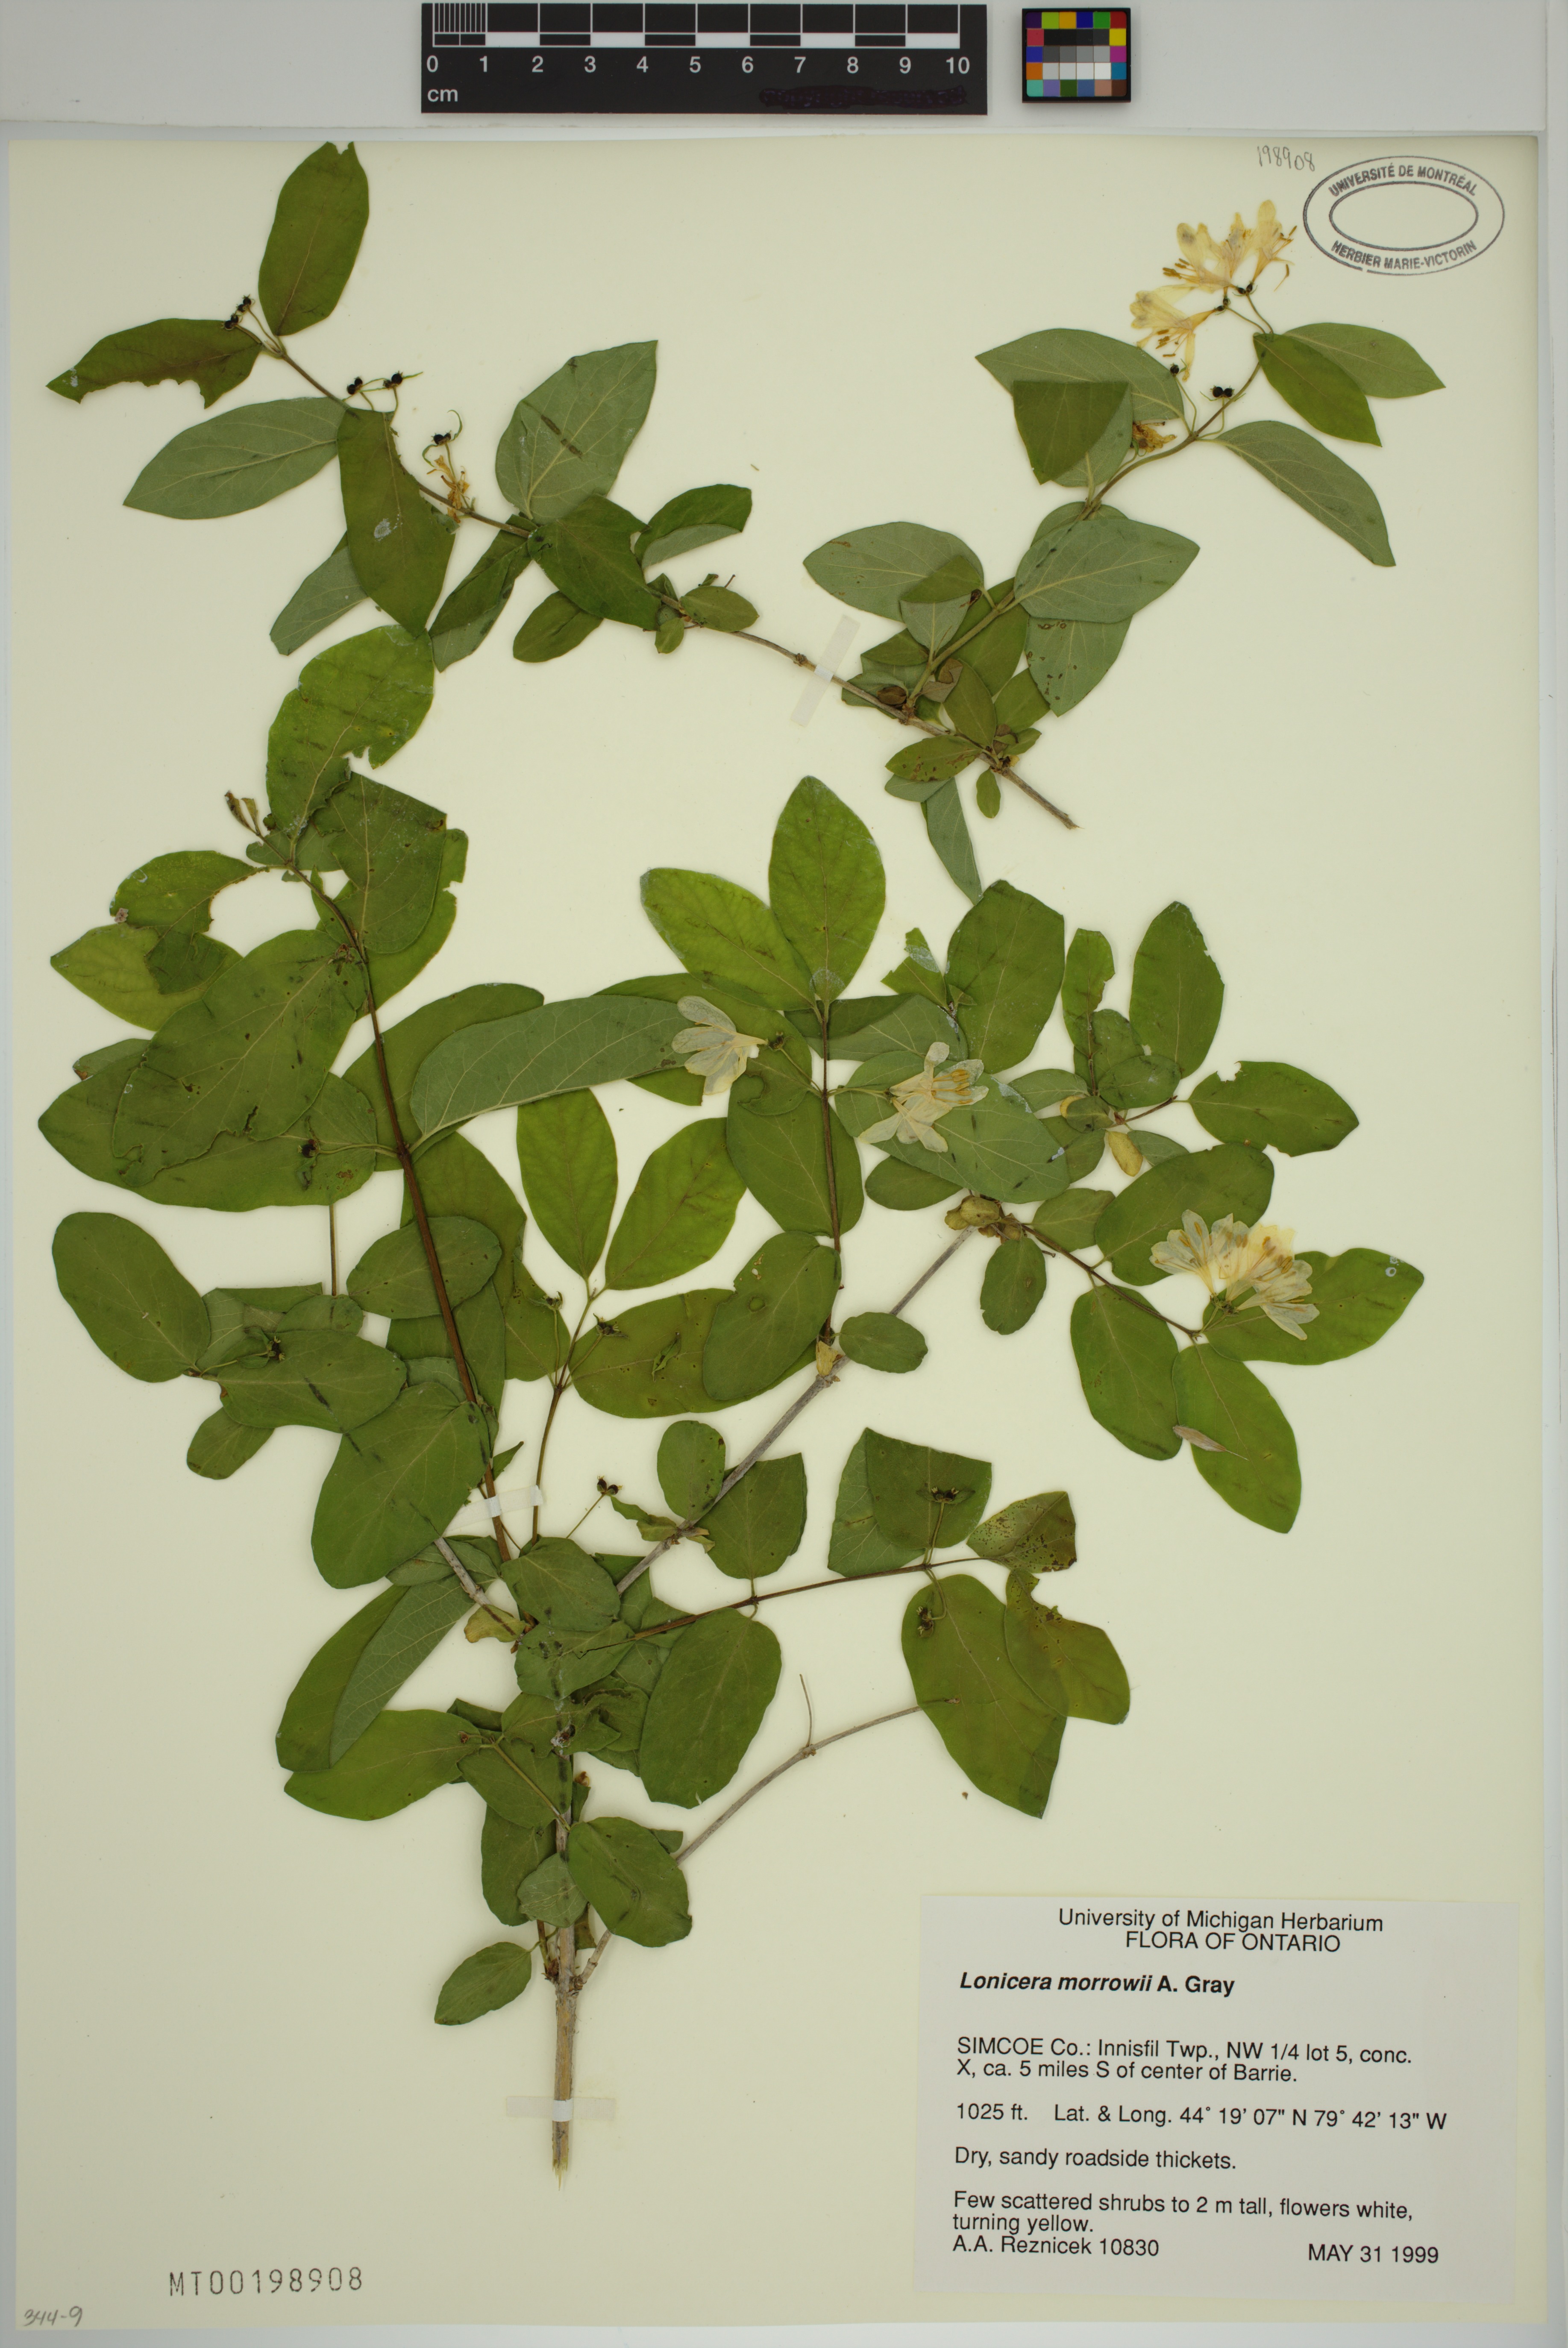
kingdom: Plantae
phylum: Tracheophyta
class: Magnoliopsida
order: Dipsacales
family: Caprifoliaceae
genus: Lonicera
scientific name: Lonicera bella
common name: Bell's honeysuckle
